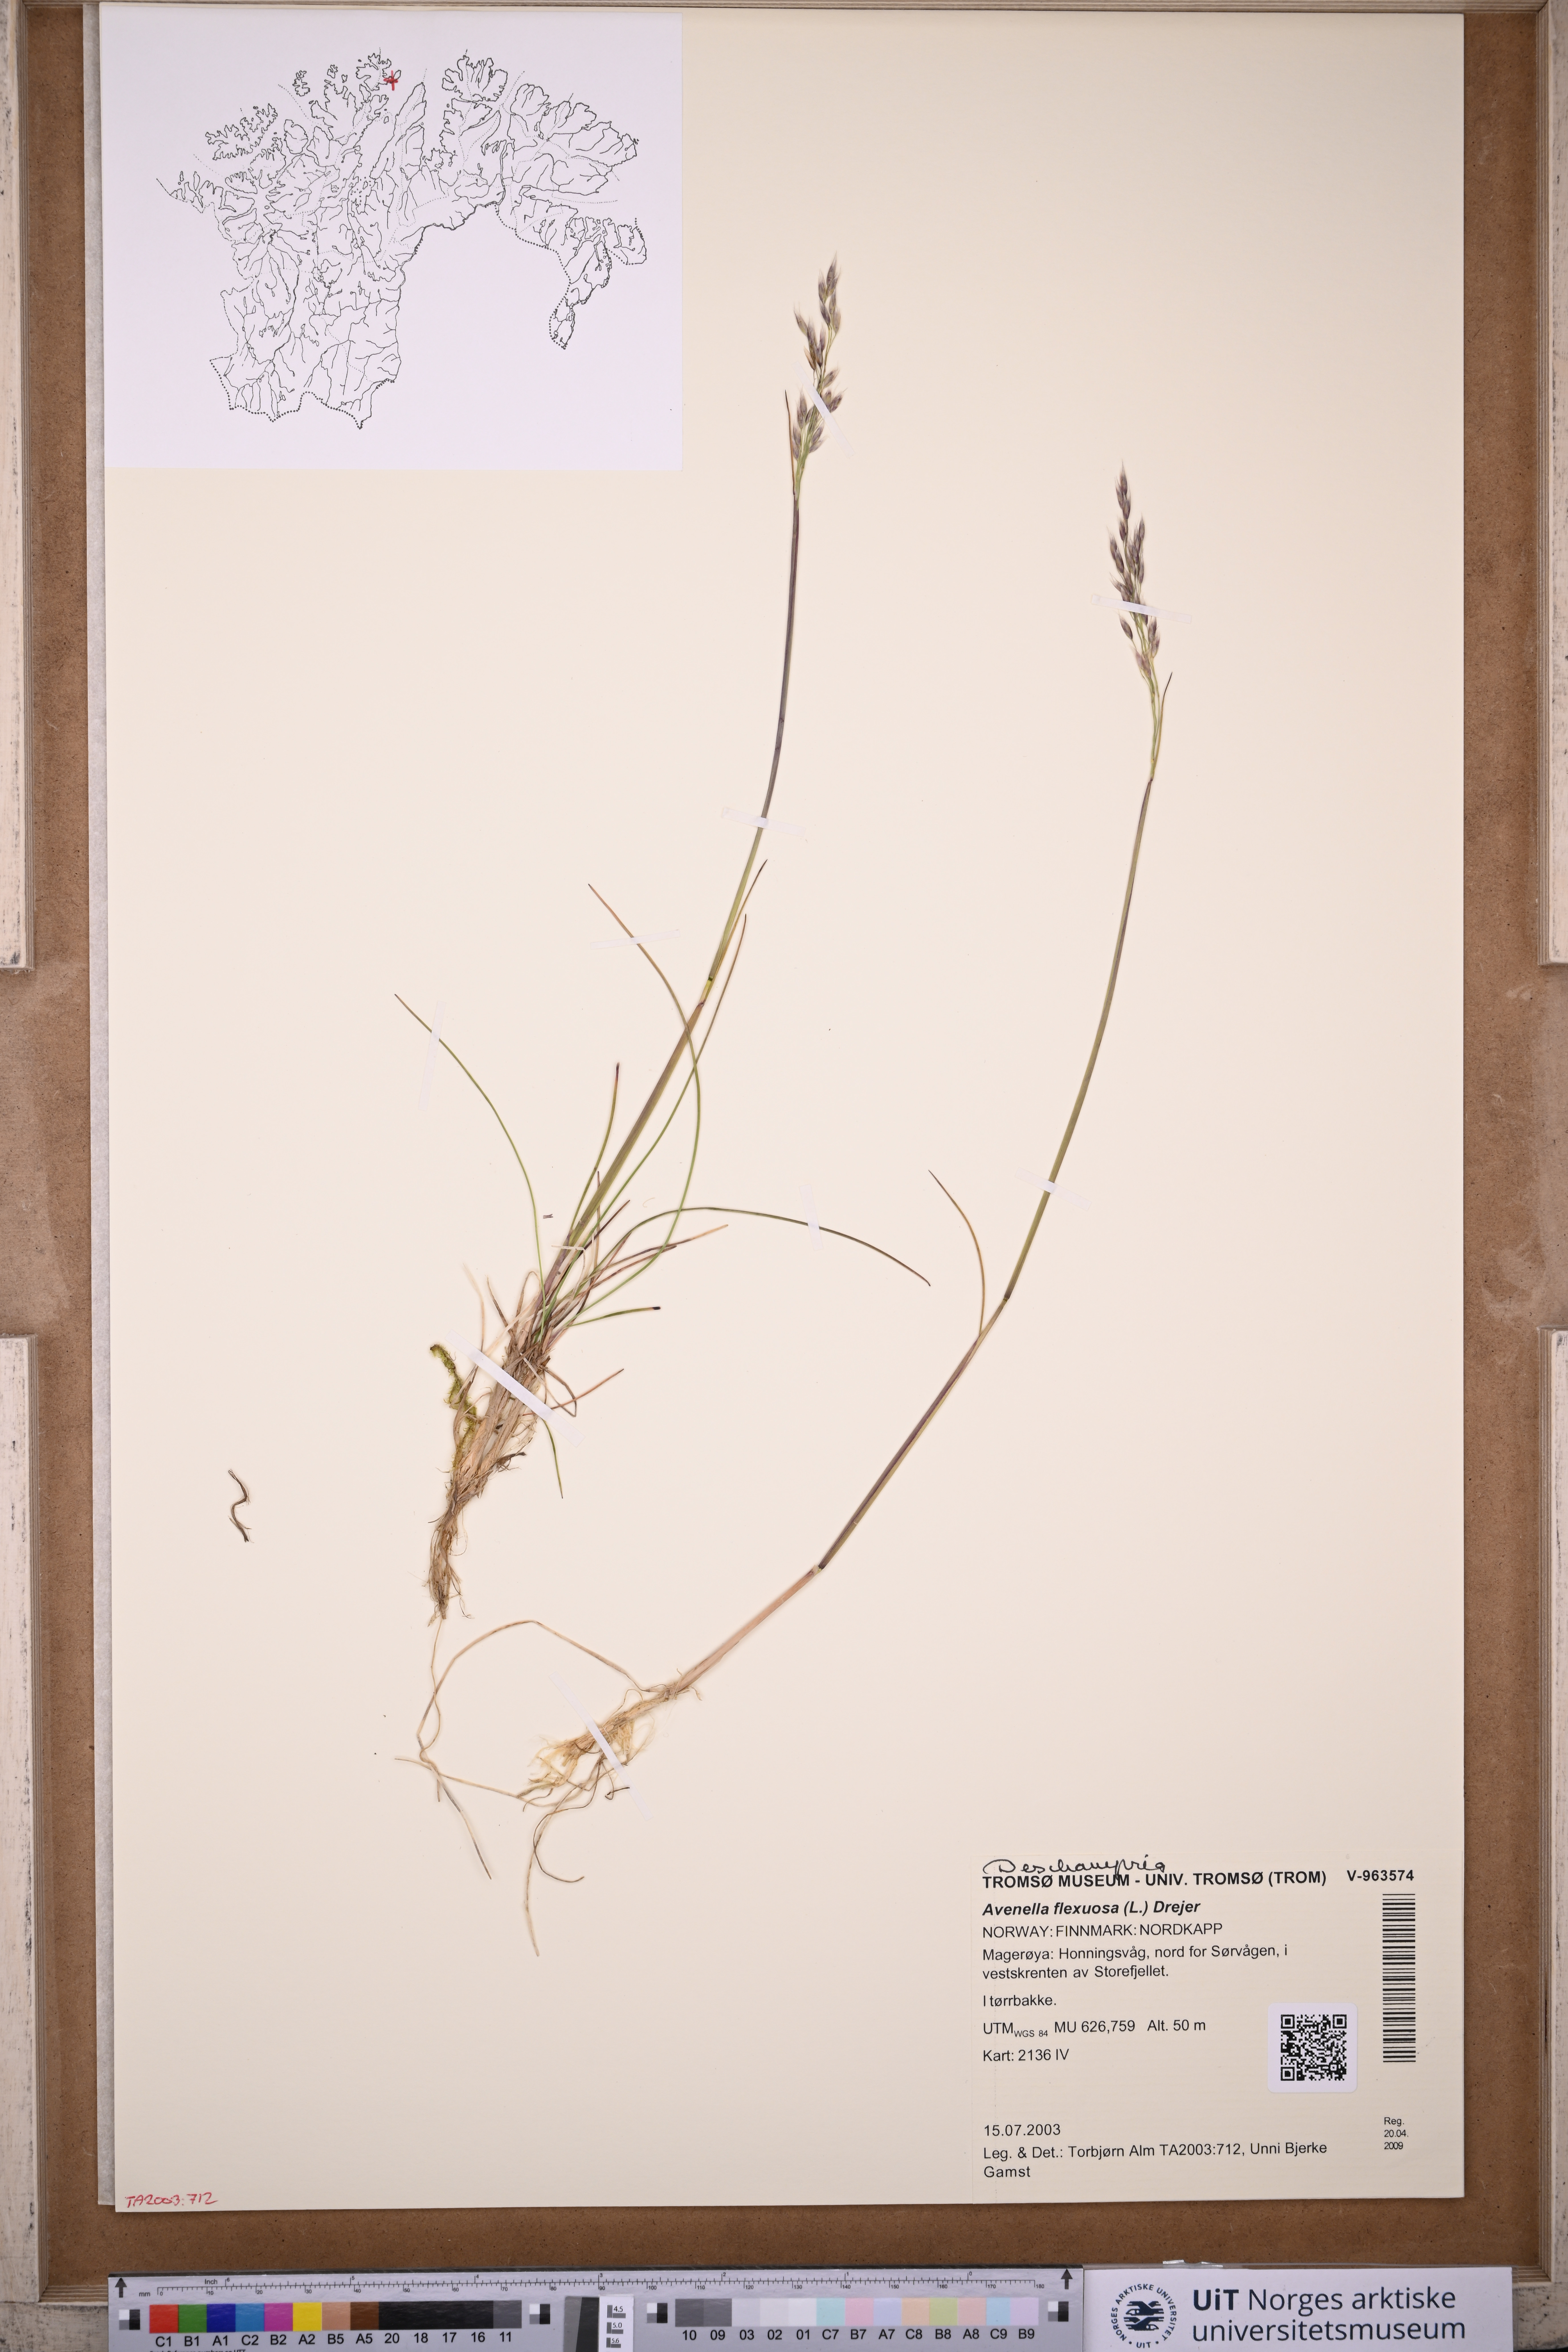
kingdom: Plantae
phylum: Tracheophyta
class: Liliopsida
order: Poales
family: Poaceae
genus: Avenella
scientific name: Avenella flexuosa
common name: Wavy hairgrass
